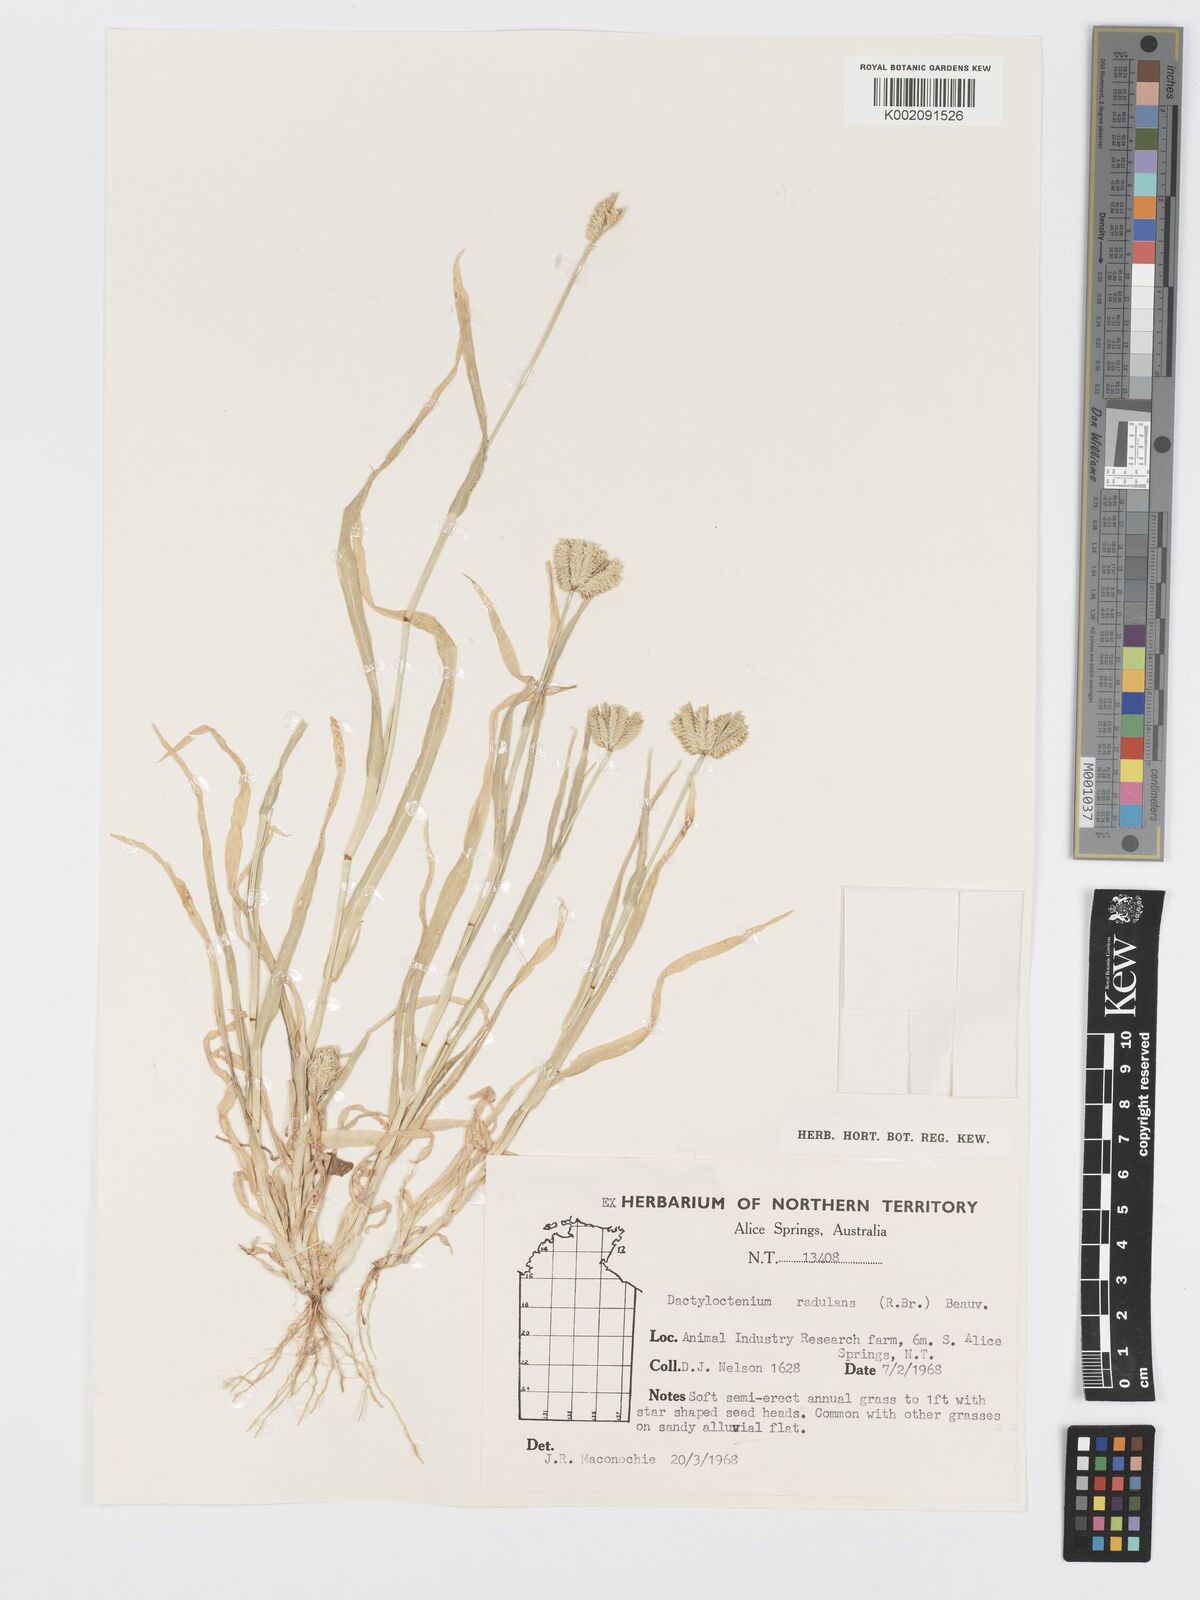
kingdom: Plantae
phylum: Tracheophyta
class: Liliopsida
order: Poales
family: Poaceae
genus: Dactyloctenium
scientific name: Dactyloctenium radulans
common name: Button-grass
